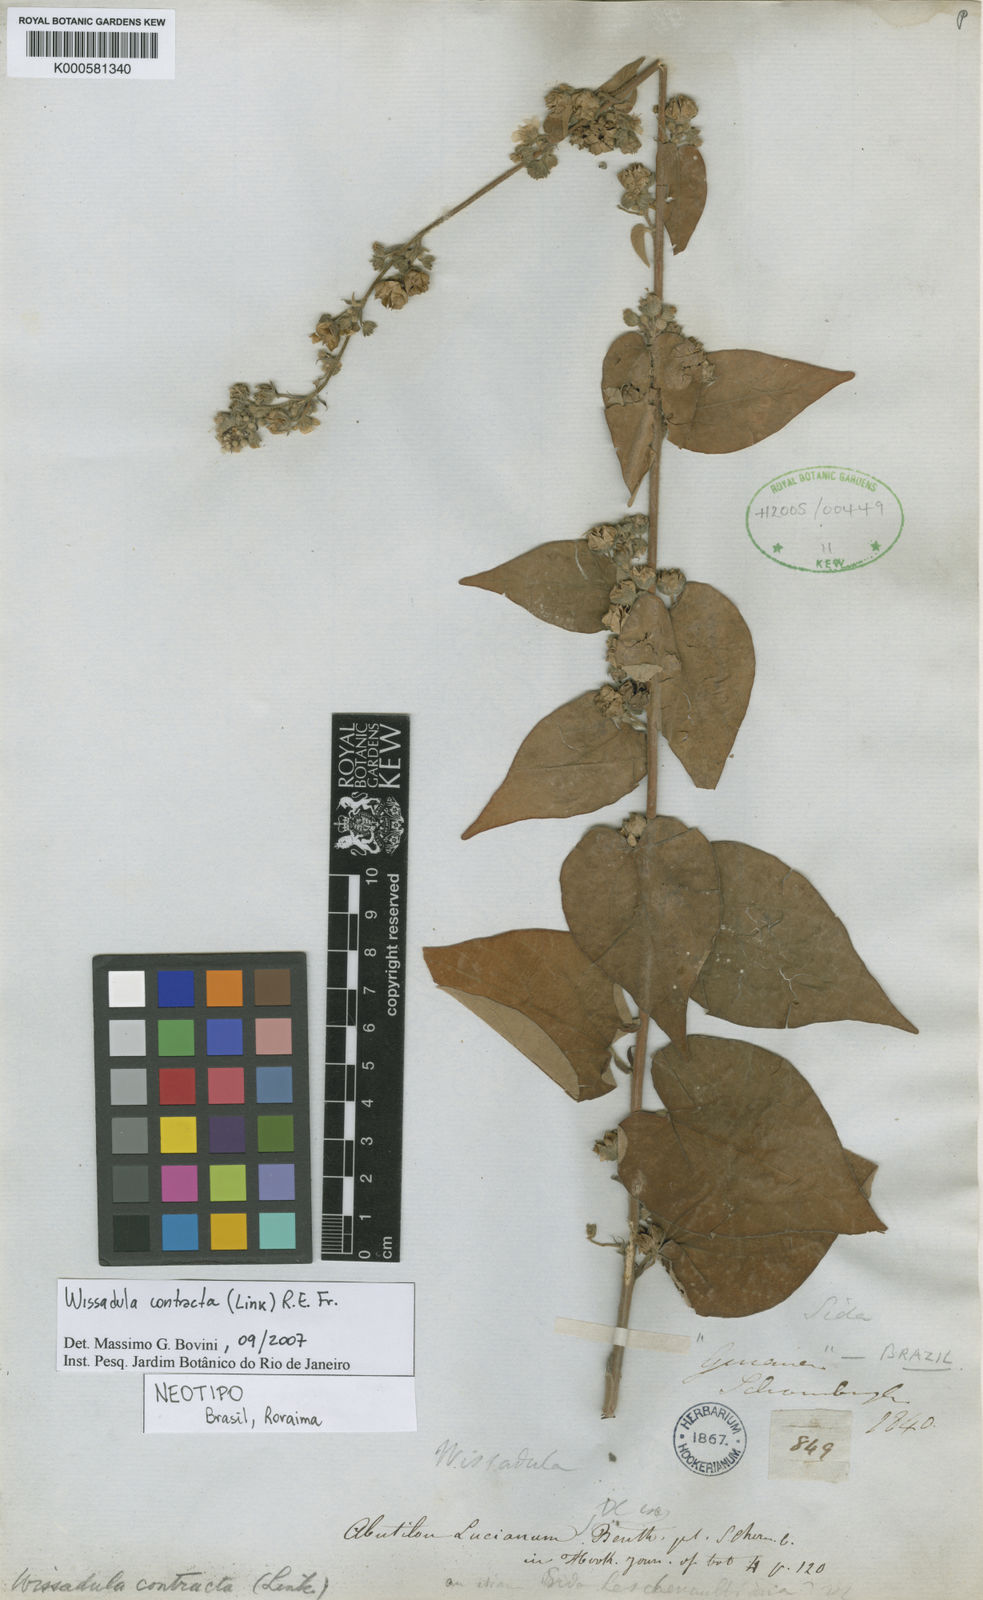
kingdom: Plantae
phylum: Tracheophyta
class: Magnoliopsida
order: Malvales
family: Malvaceae
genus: Wissadula
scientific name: Wissadula contracta
